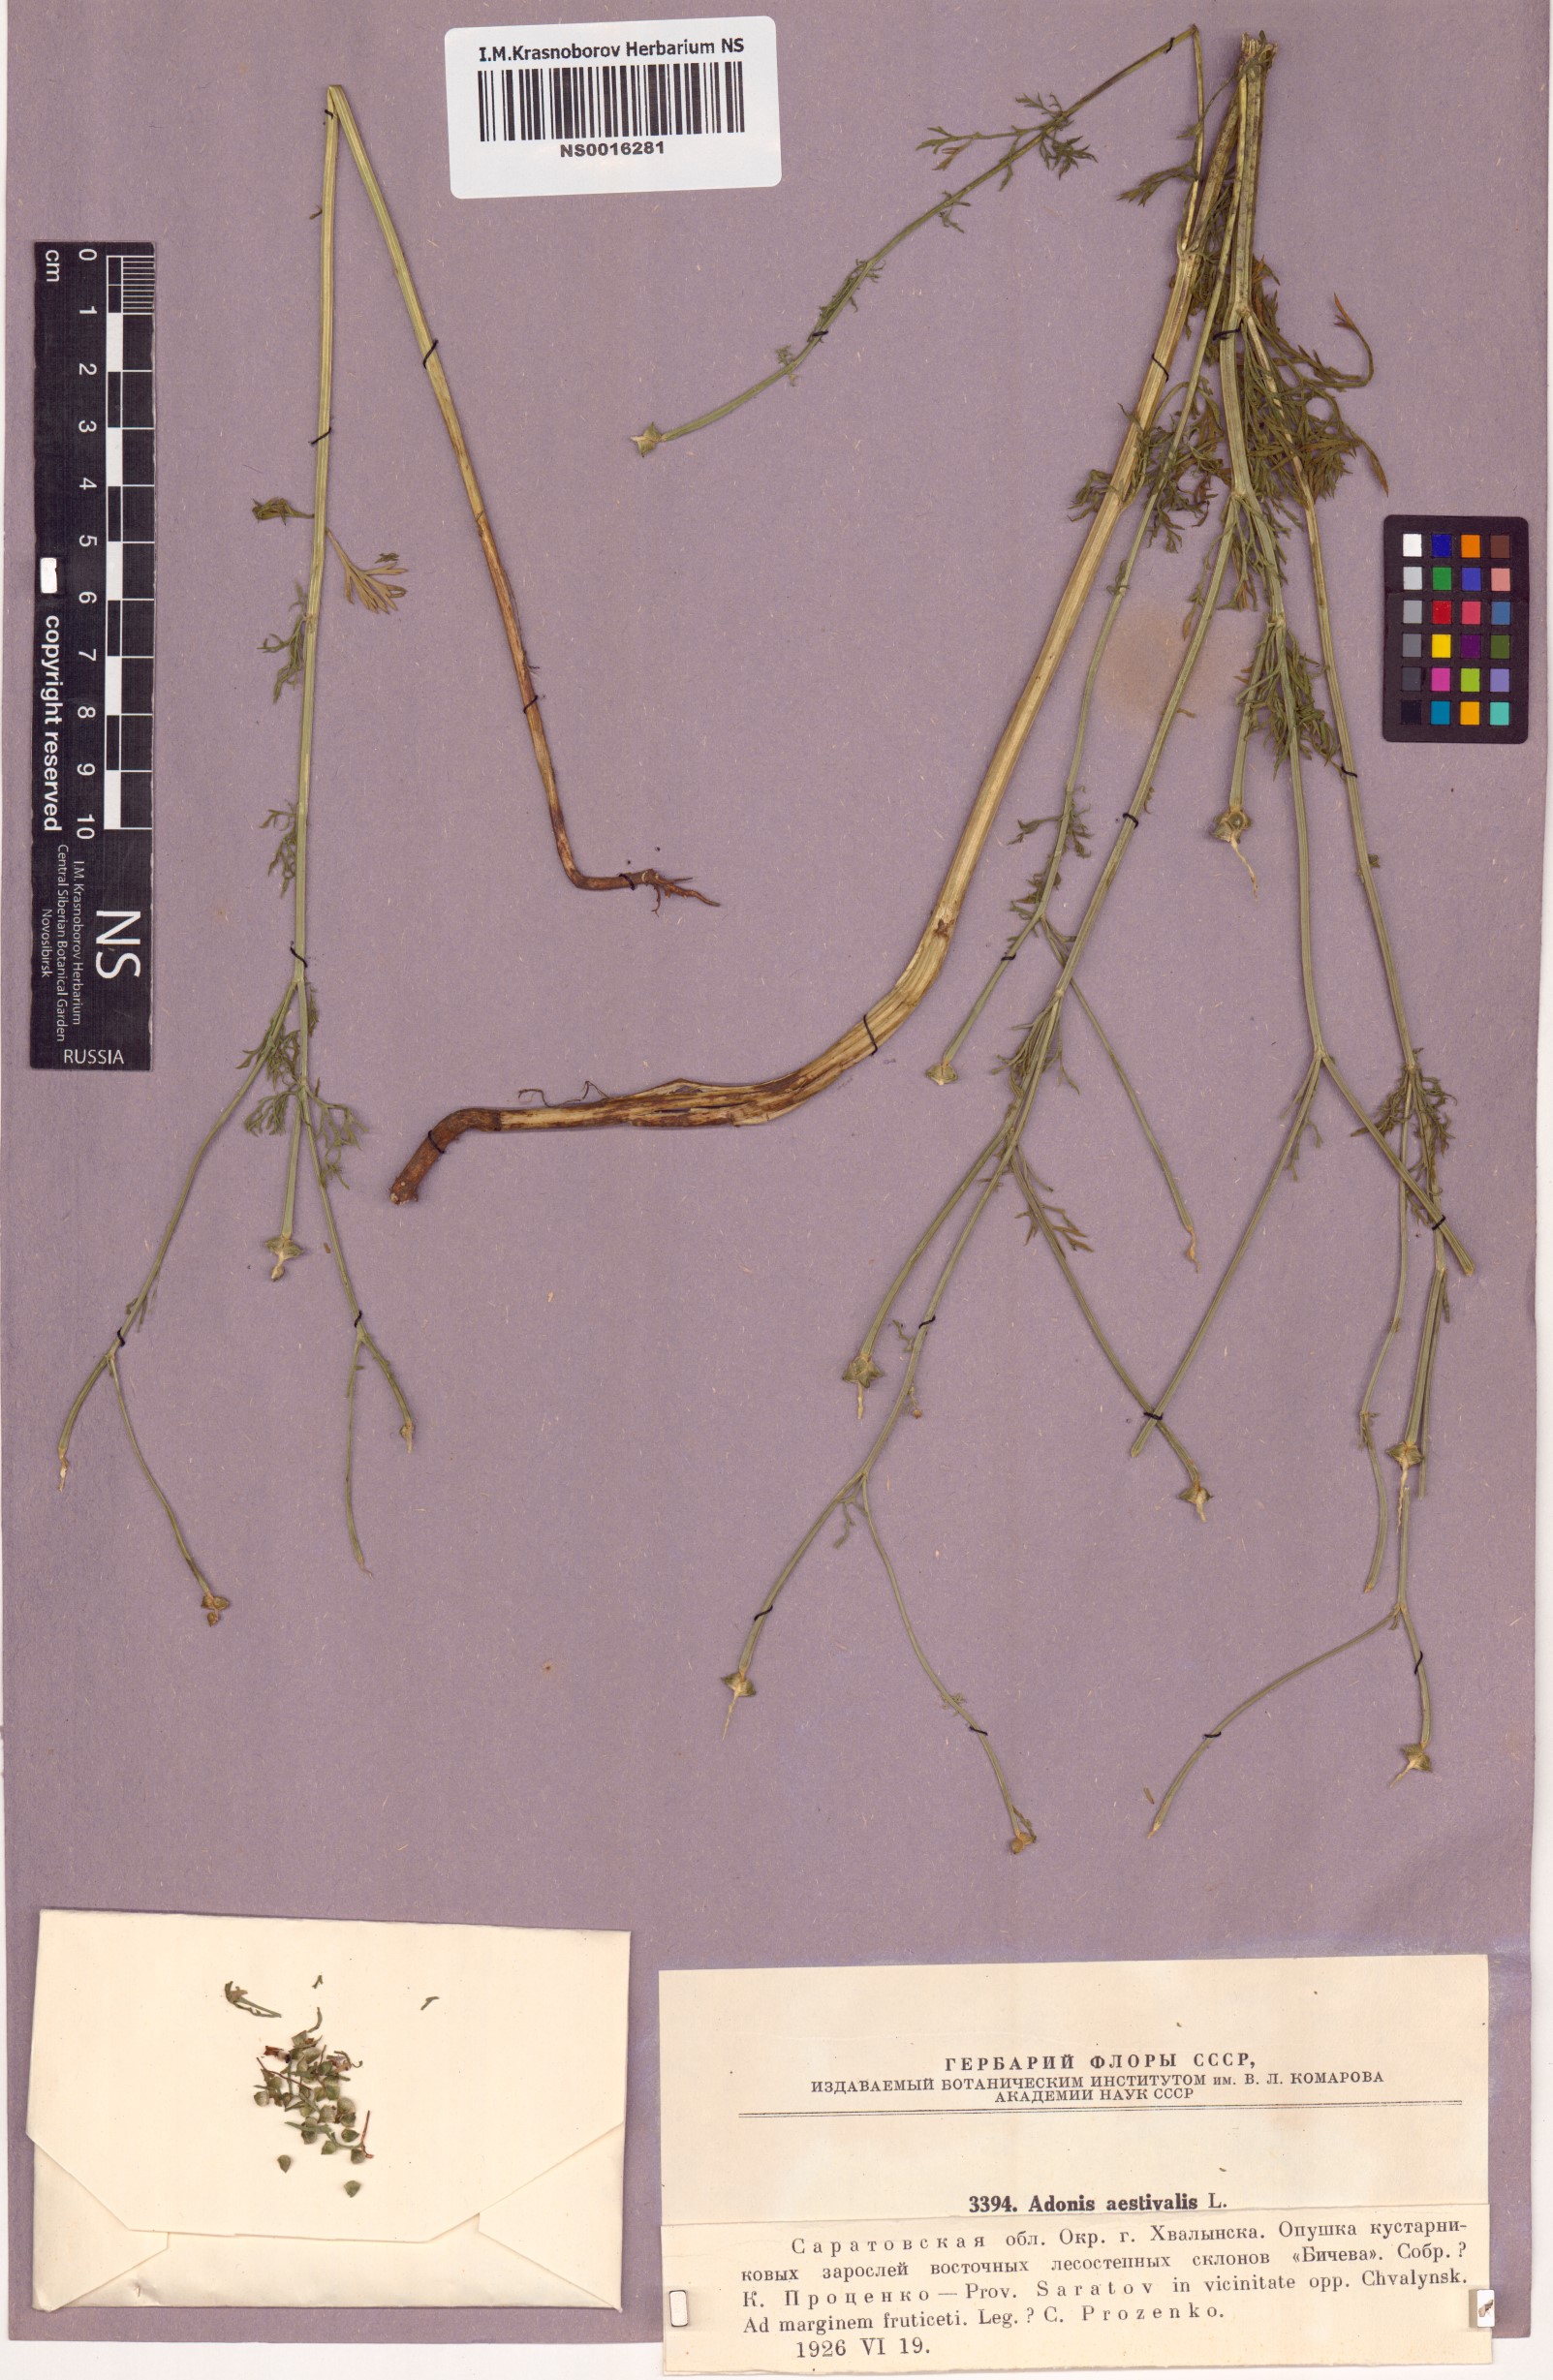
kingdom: Plantae
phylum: Tracheophyta
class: Magnoliopsida
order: Ranunculales
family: Ranunculaceae
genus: Adonis
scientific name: Adonis aestivalis
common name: Summer pheasant's-eye
